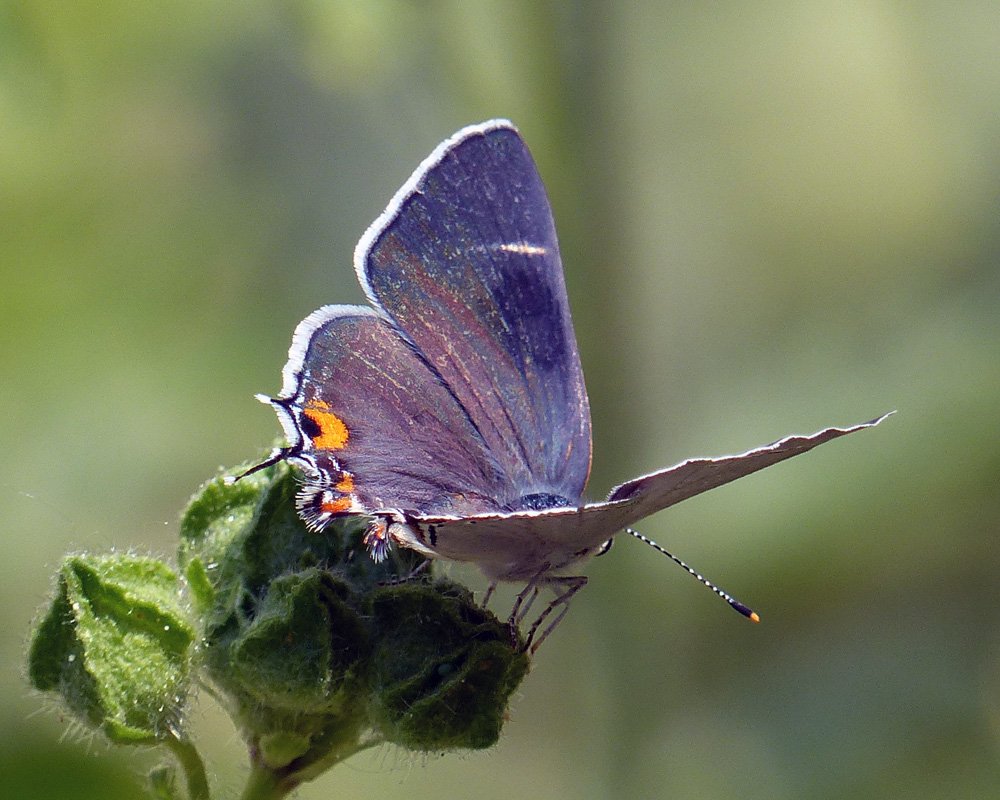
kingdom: Animalia
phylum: Arthropoda
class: Insecta
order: Lepidoptera
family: Lycaenidae
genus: Strymon
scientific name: Strymon melinus
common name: Gray Hairstreak
